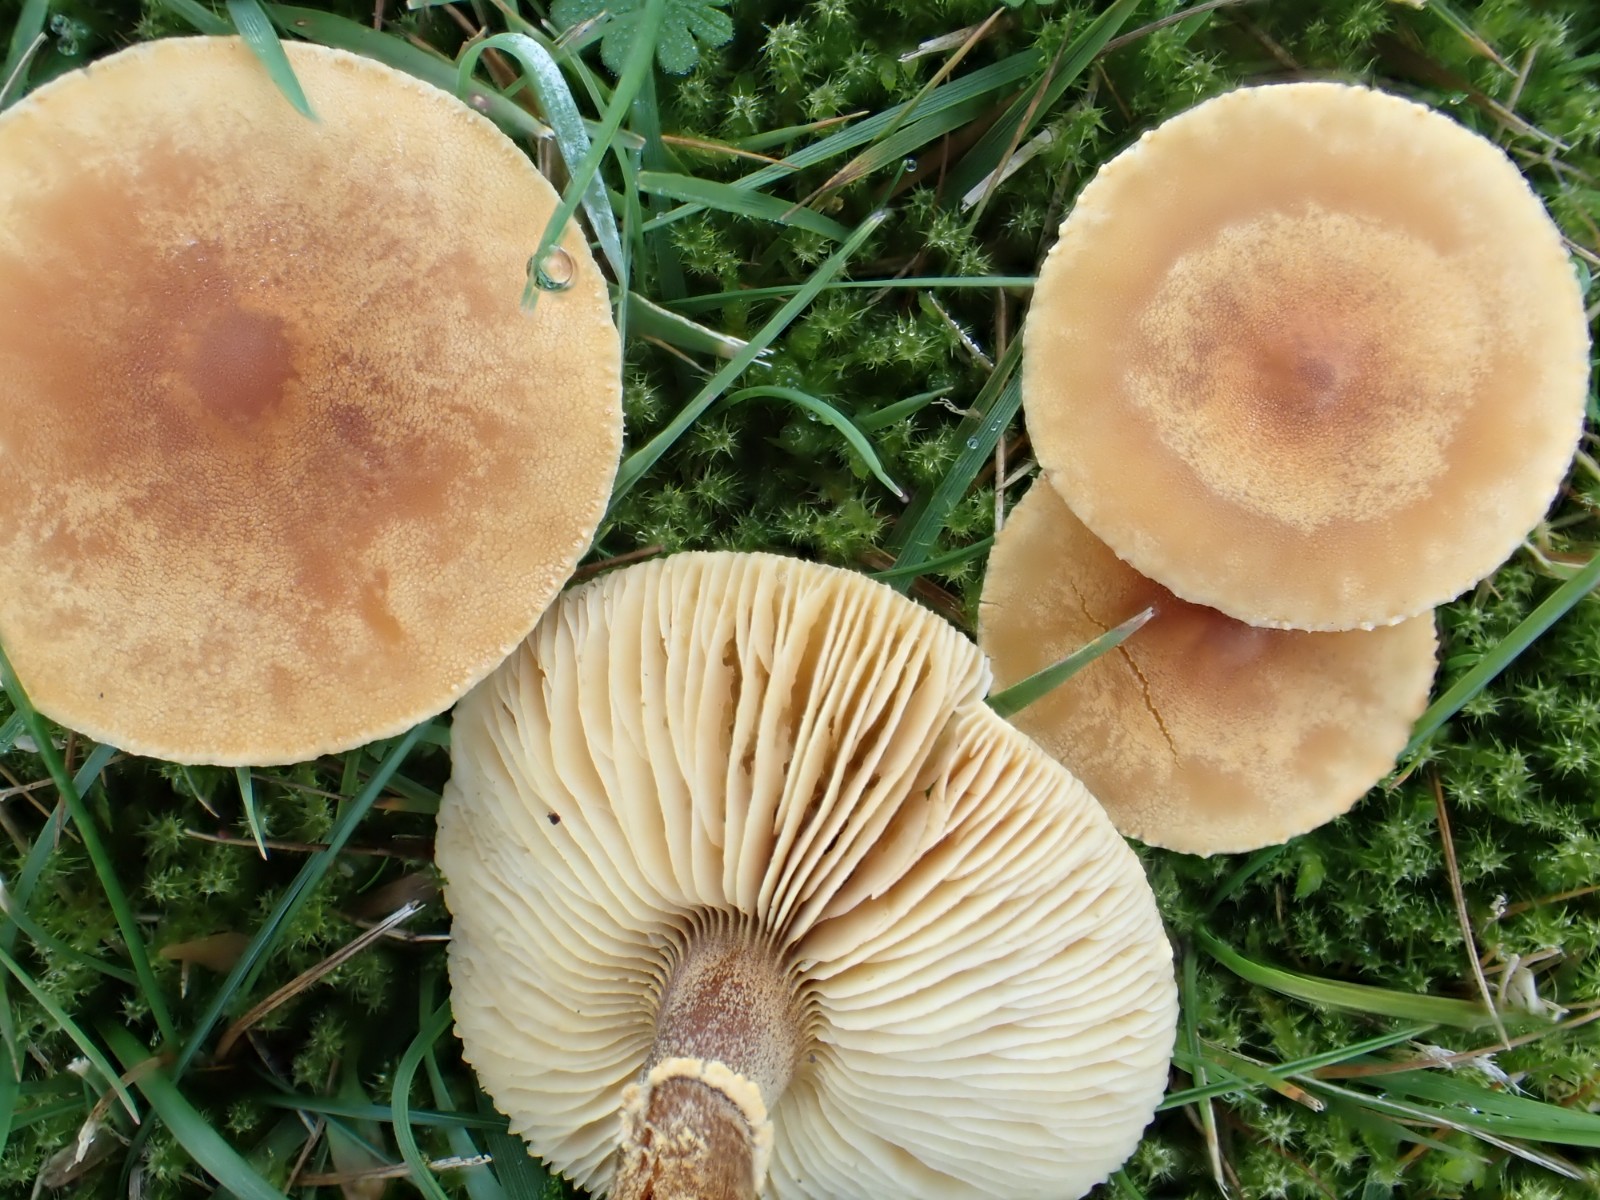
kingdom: Fungi
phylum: Basidiomycota
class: Agaricomycetes
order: Agaricales
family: Tricholomataceae
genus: Cystoderma
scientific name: Cystoderma amianthinum
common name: okkergul grynhat
